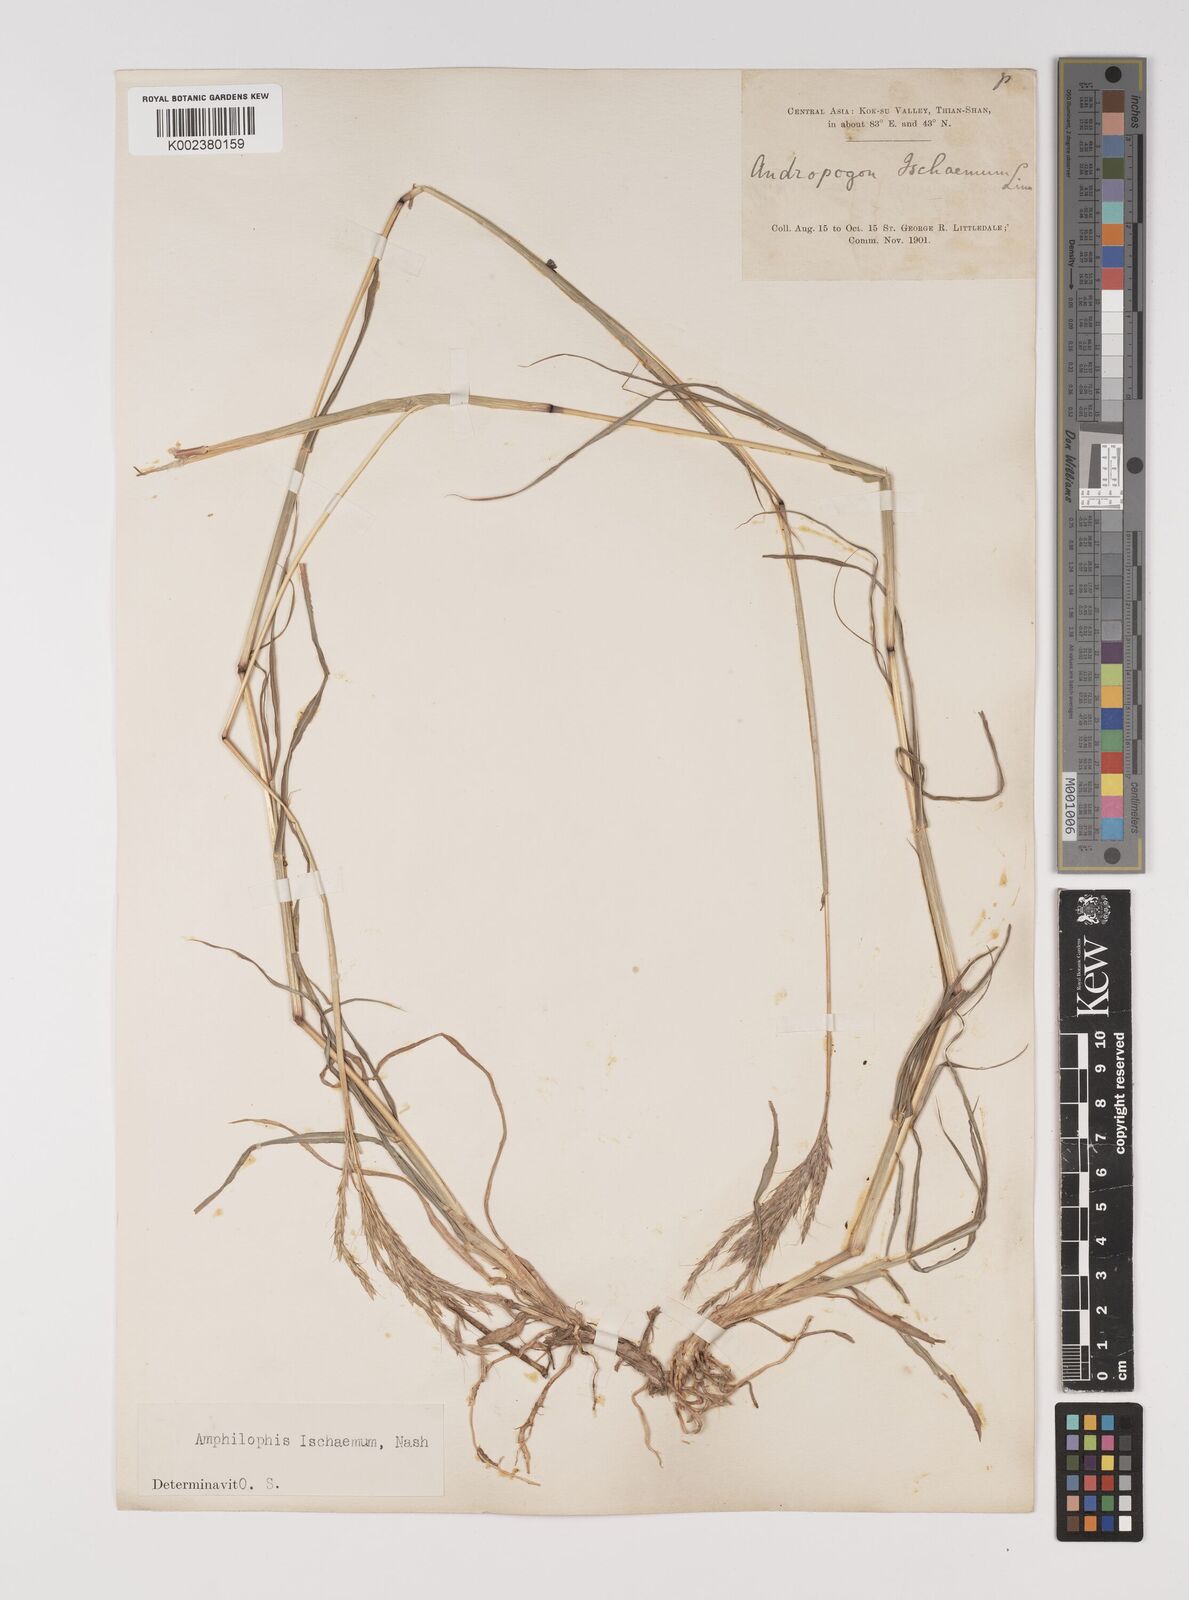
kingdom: Plantae
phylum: Tracheophyta
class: Liliopsida
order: Poales
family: Poaceae
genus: Bothriochloa
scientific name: Bothriochloa ischaemum
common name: Yellow bluestem
